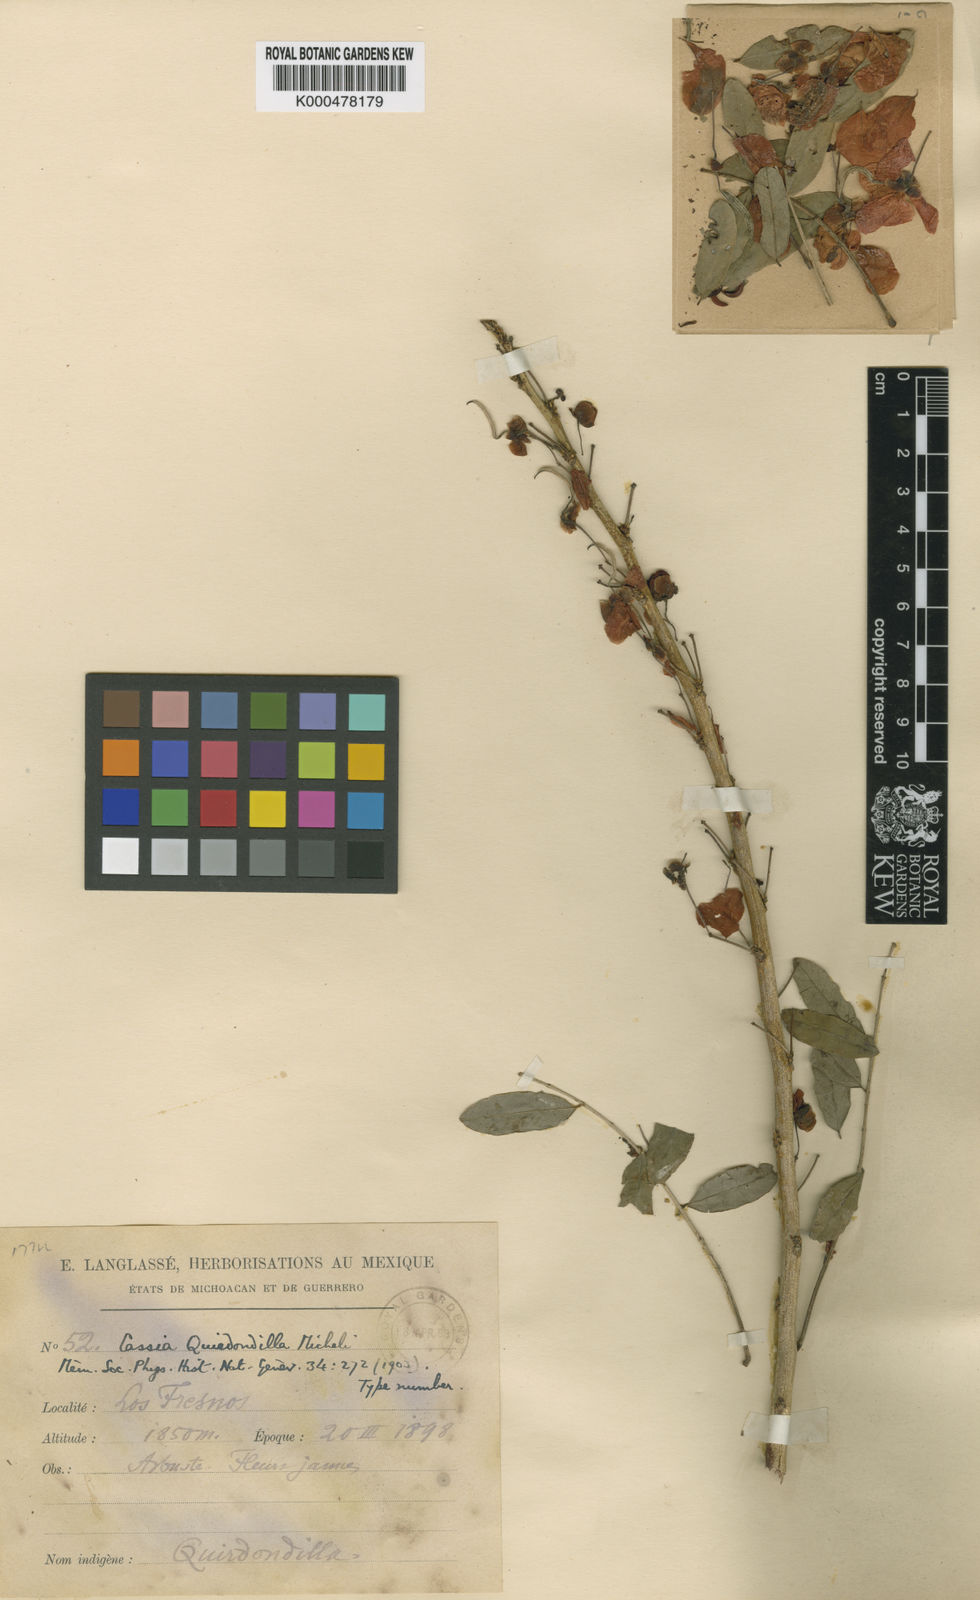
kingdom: Plantae
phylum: Tracheophyta
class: Magnoliopsida
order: Fabales
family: Fabaceae
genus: Senna
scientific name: Senna pallida
